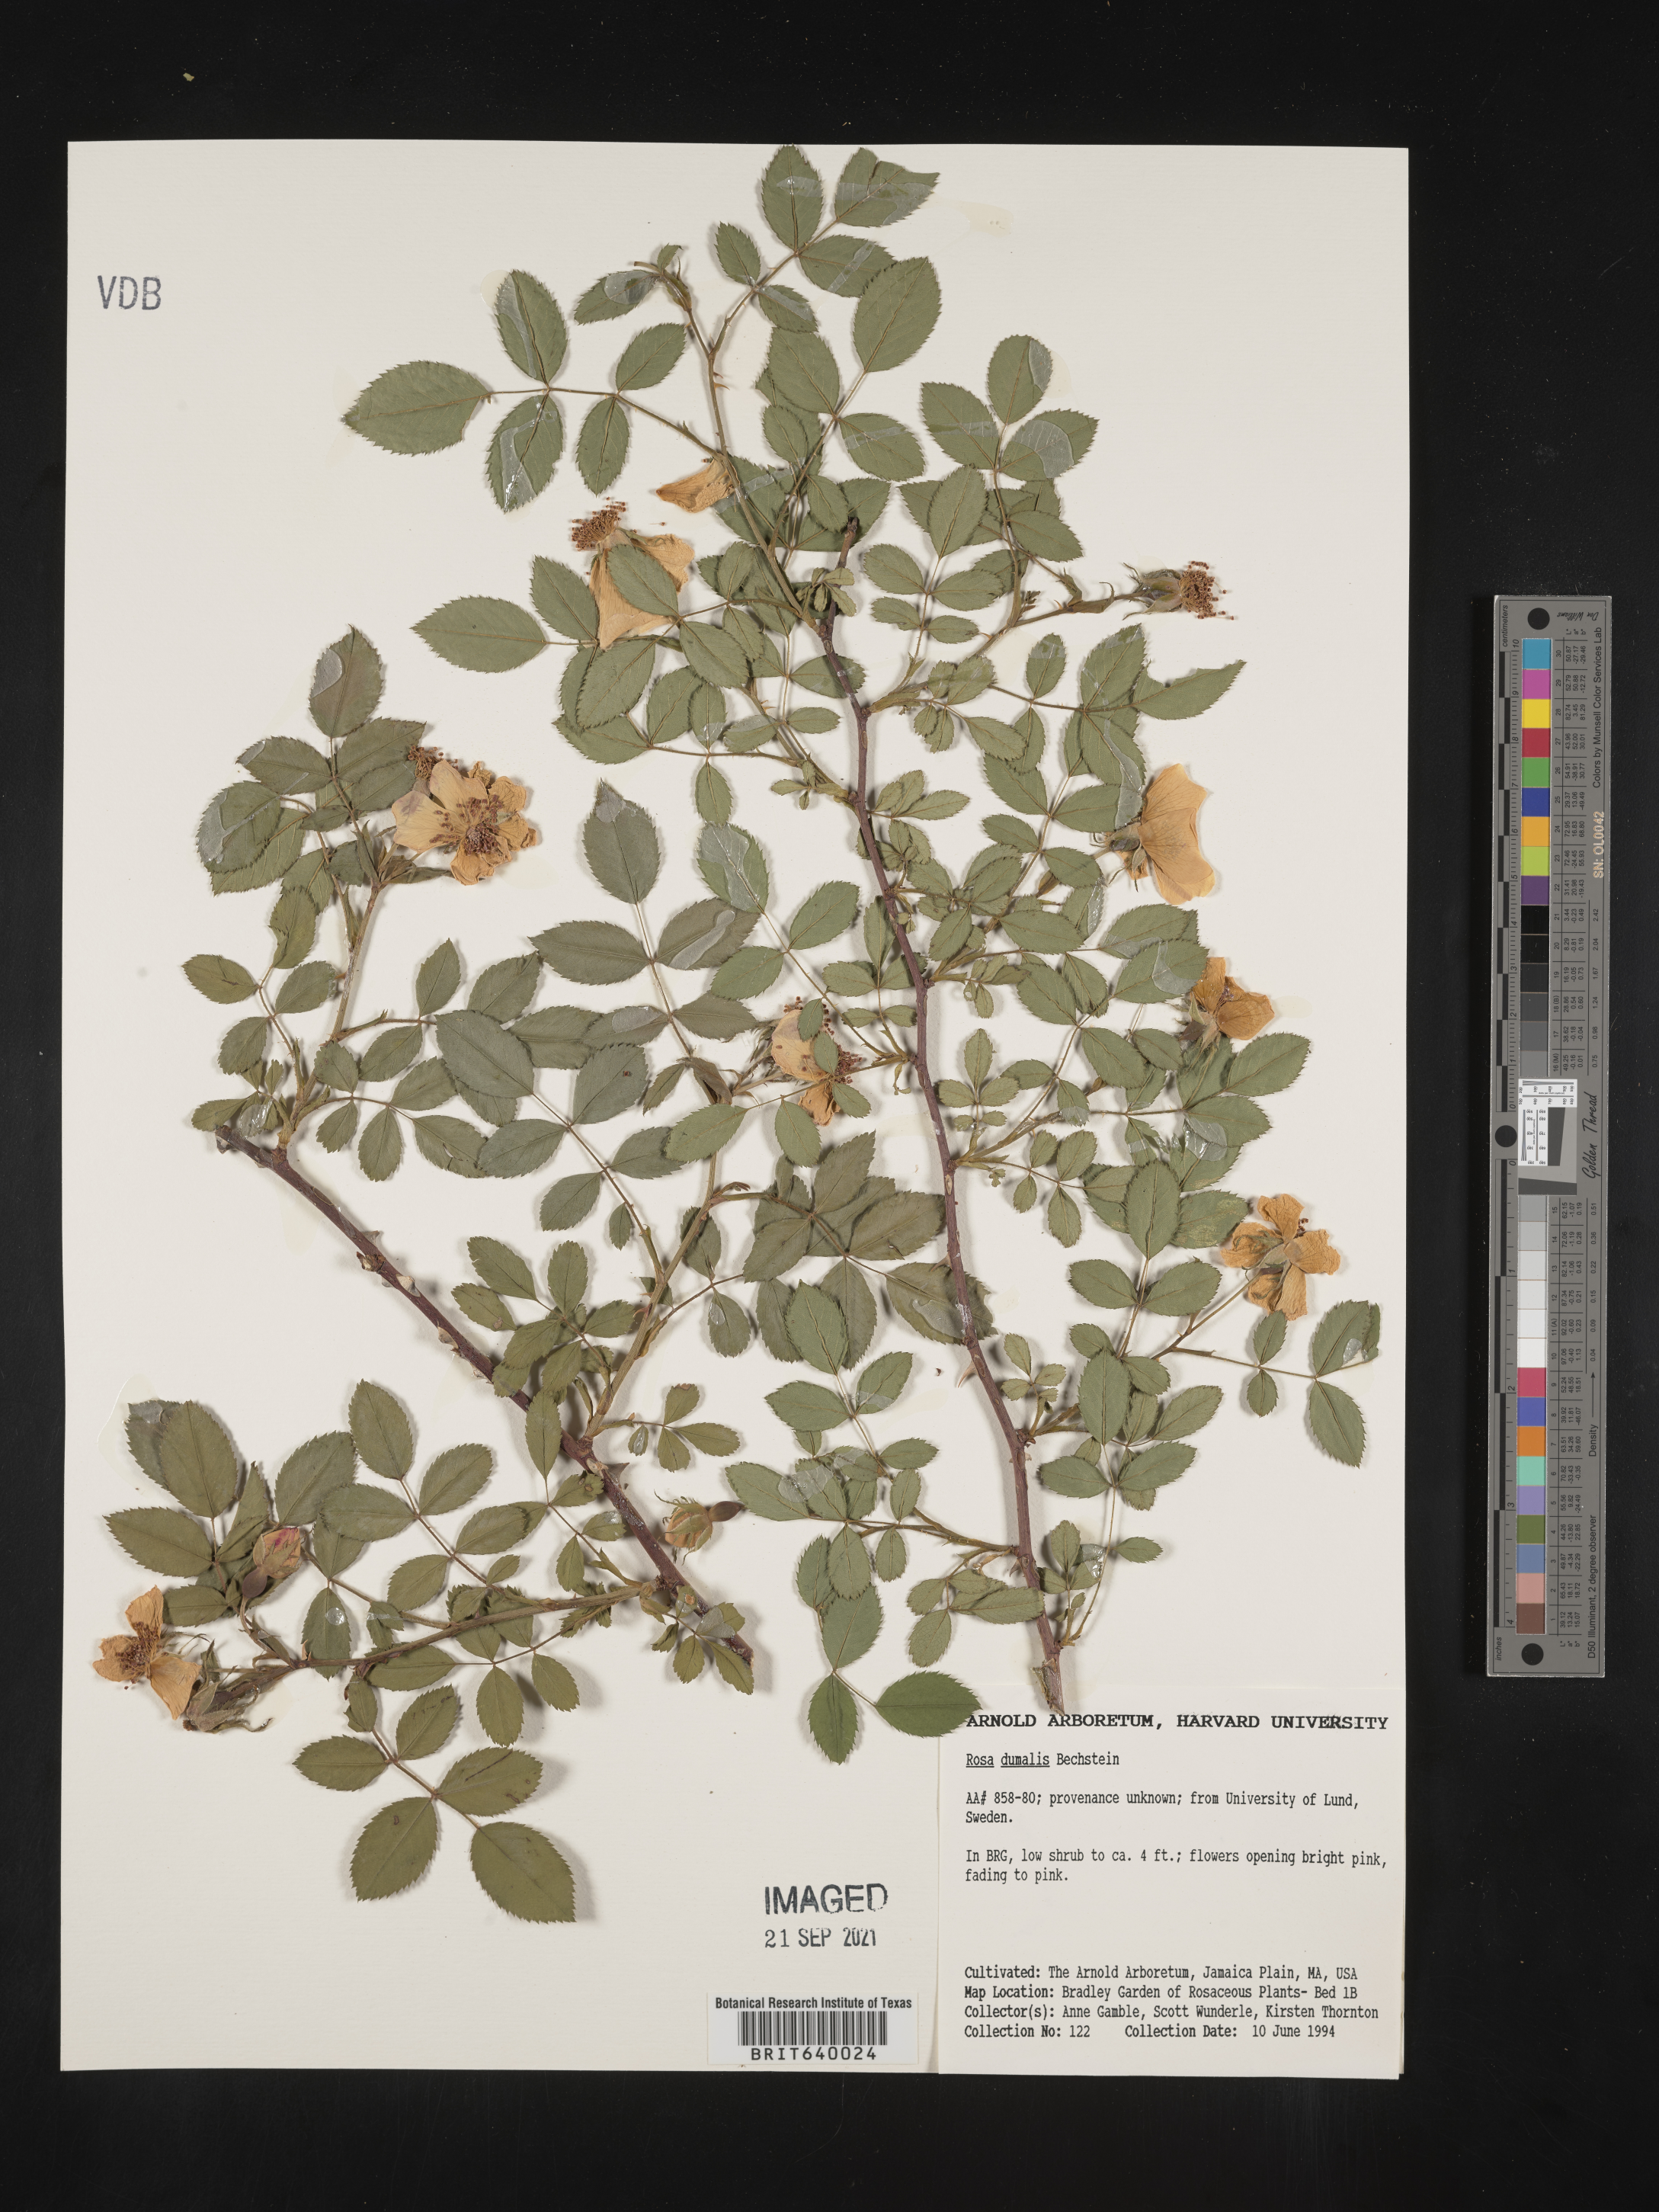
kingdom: Plantae
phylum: Tracheophyta
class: Magnoliopsida
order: Rosales
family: Rosaceae
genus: Rosa
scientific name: Rosa
